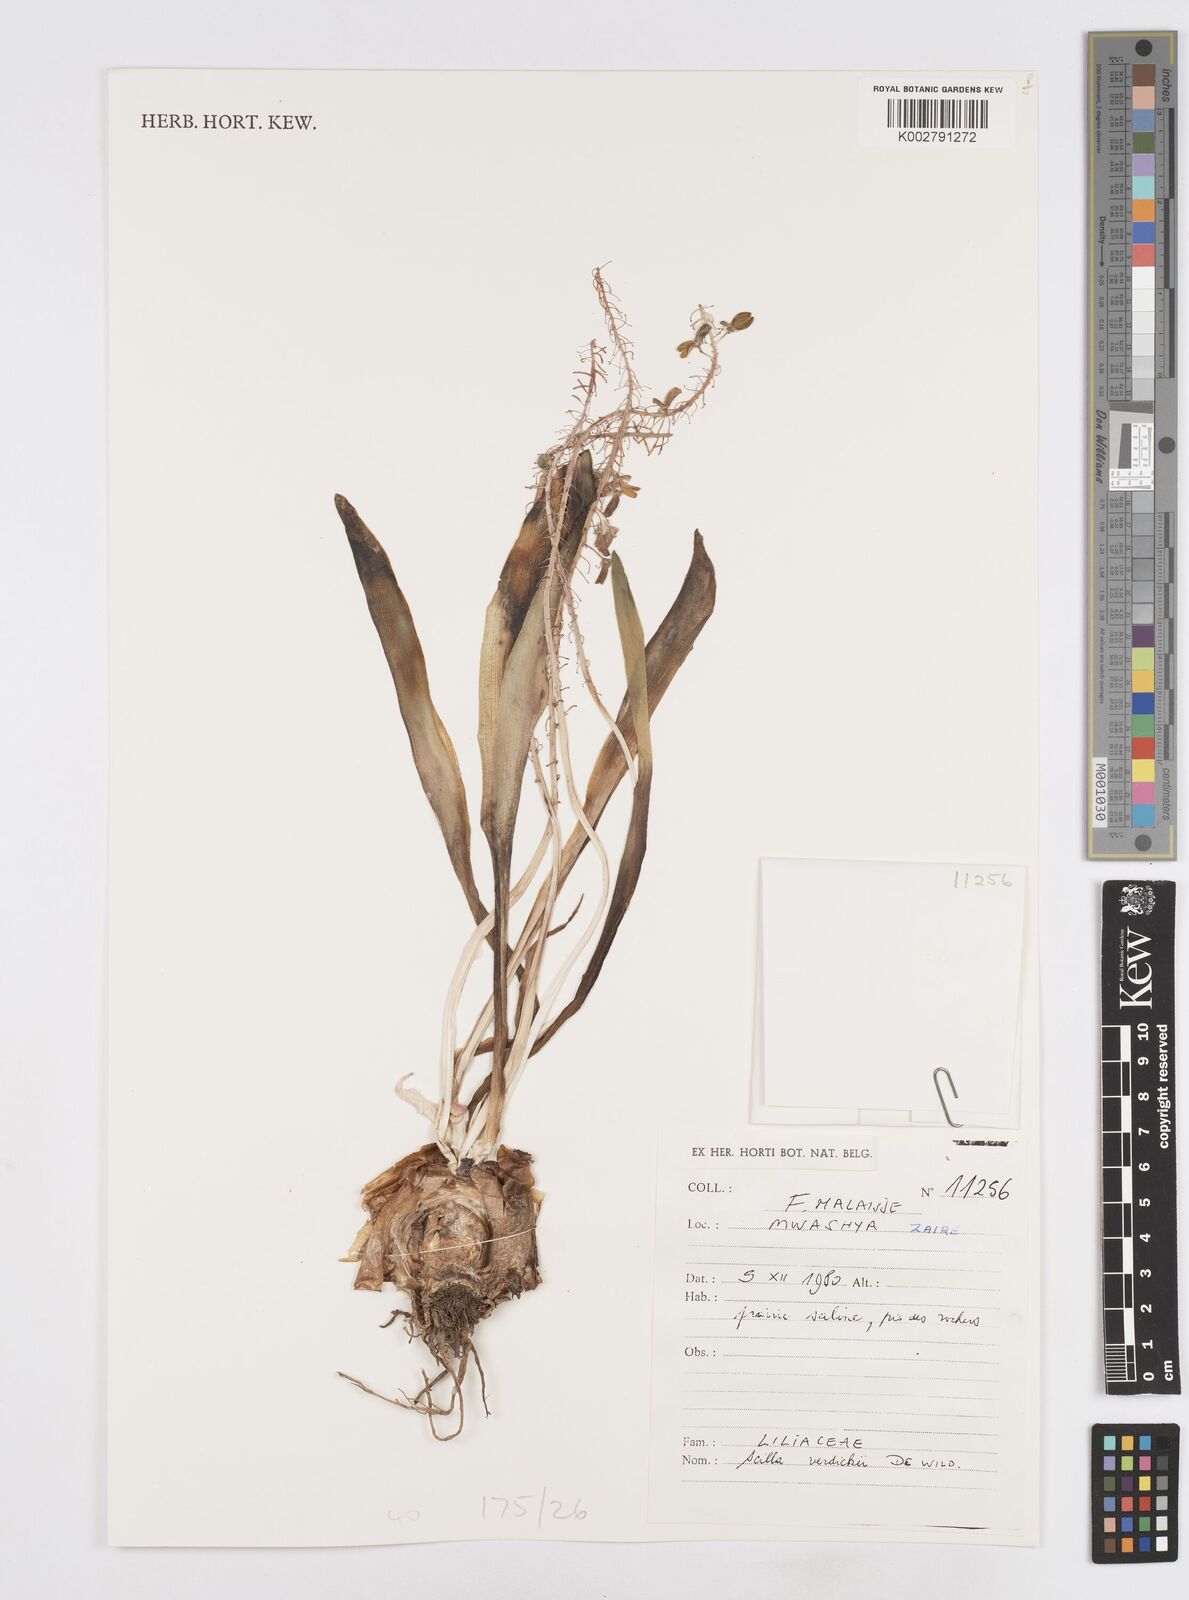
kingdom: Plantae
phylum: Tracheophyta
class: Liliopsida
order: Asparagales
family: Asparagaceae
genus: Scilla
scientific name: Scilla verdickii
